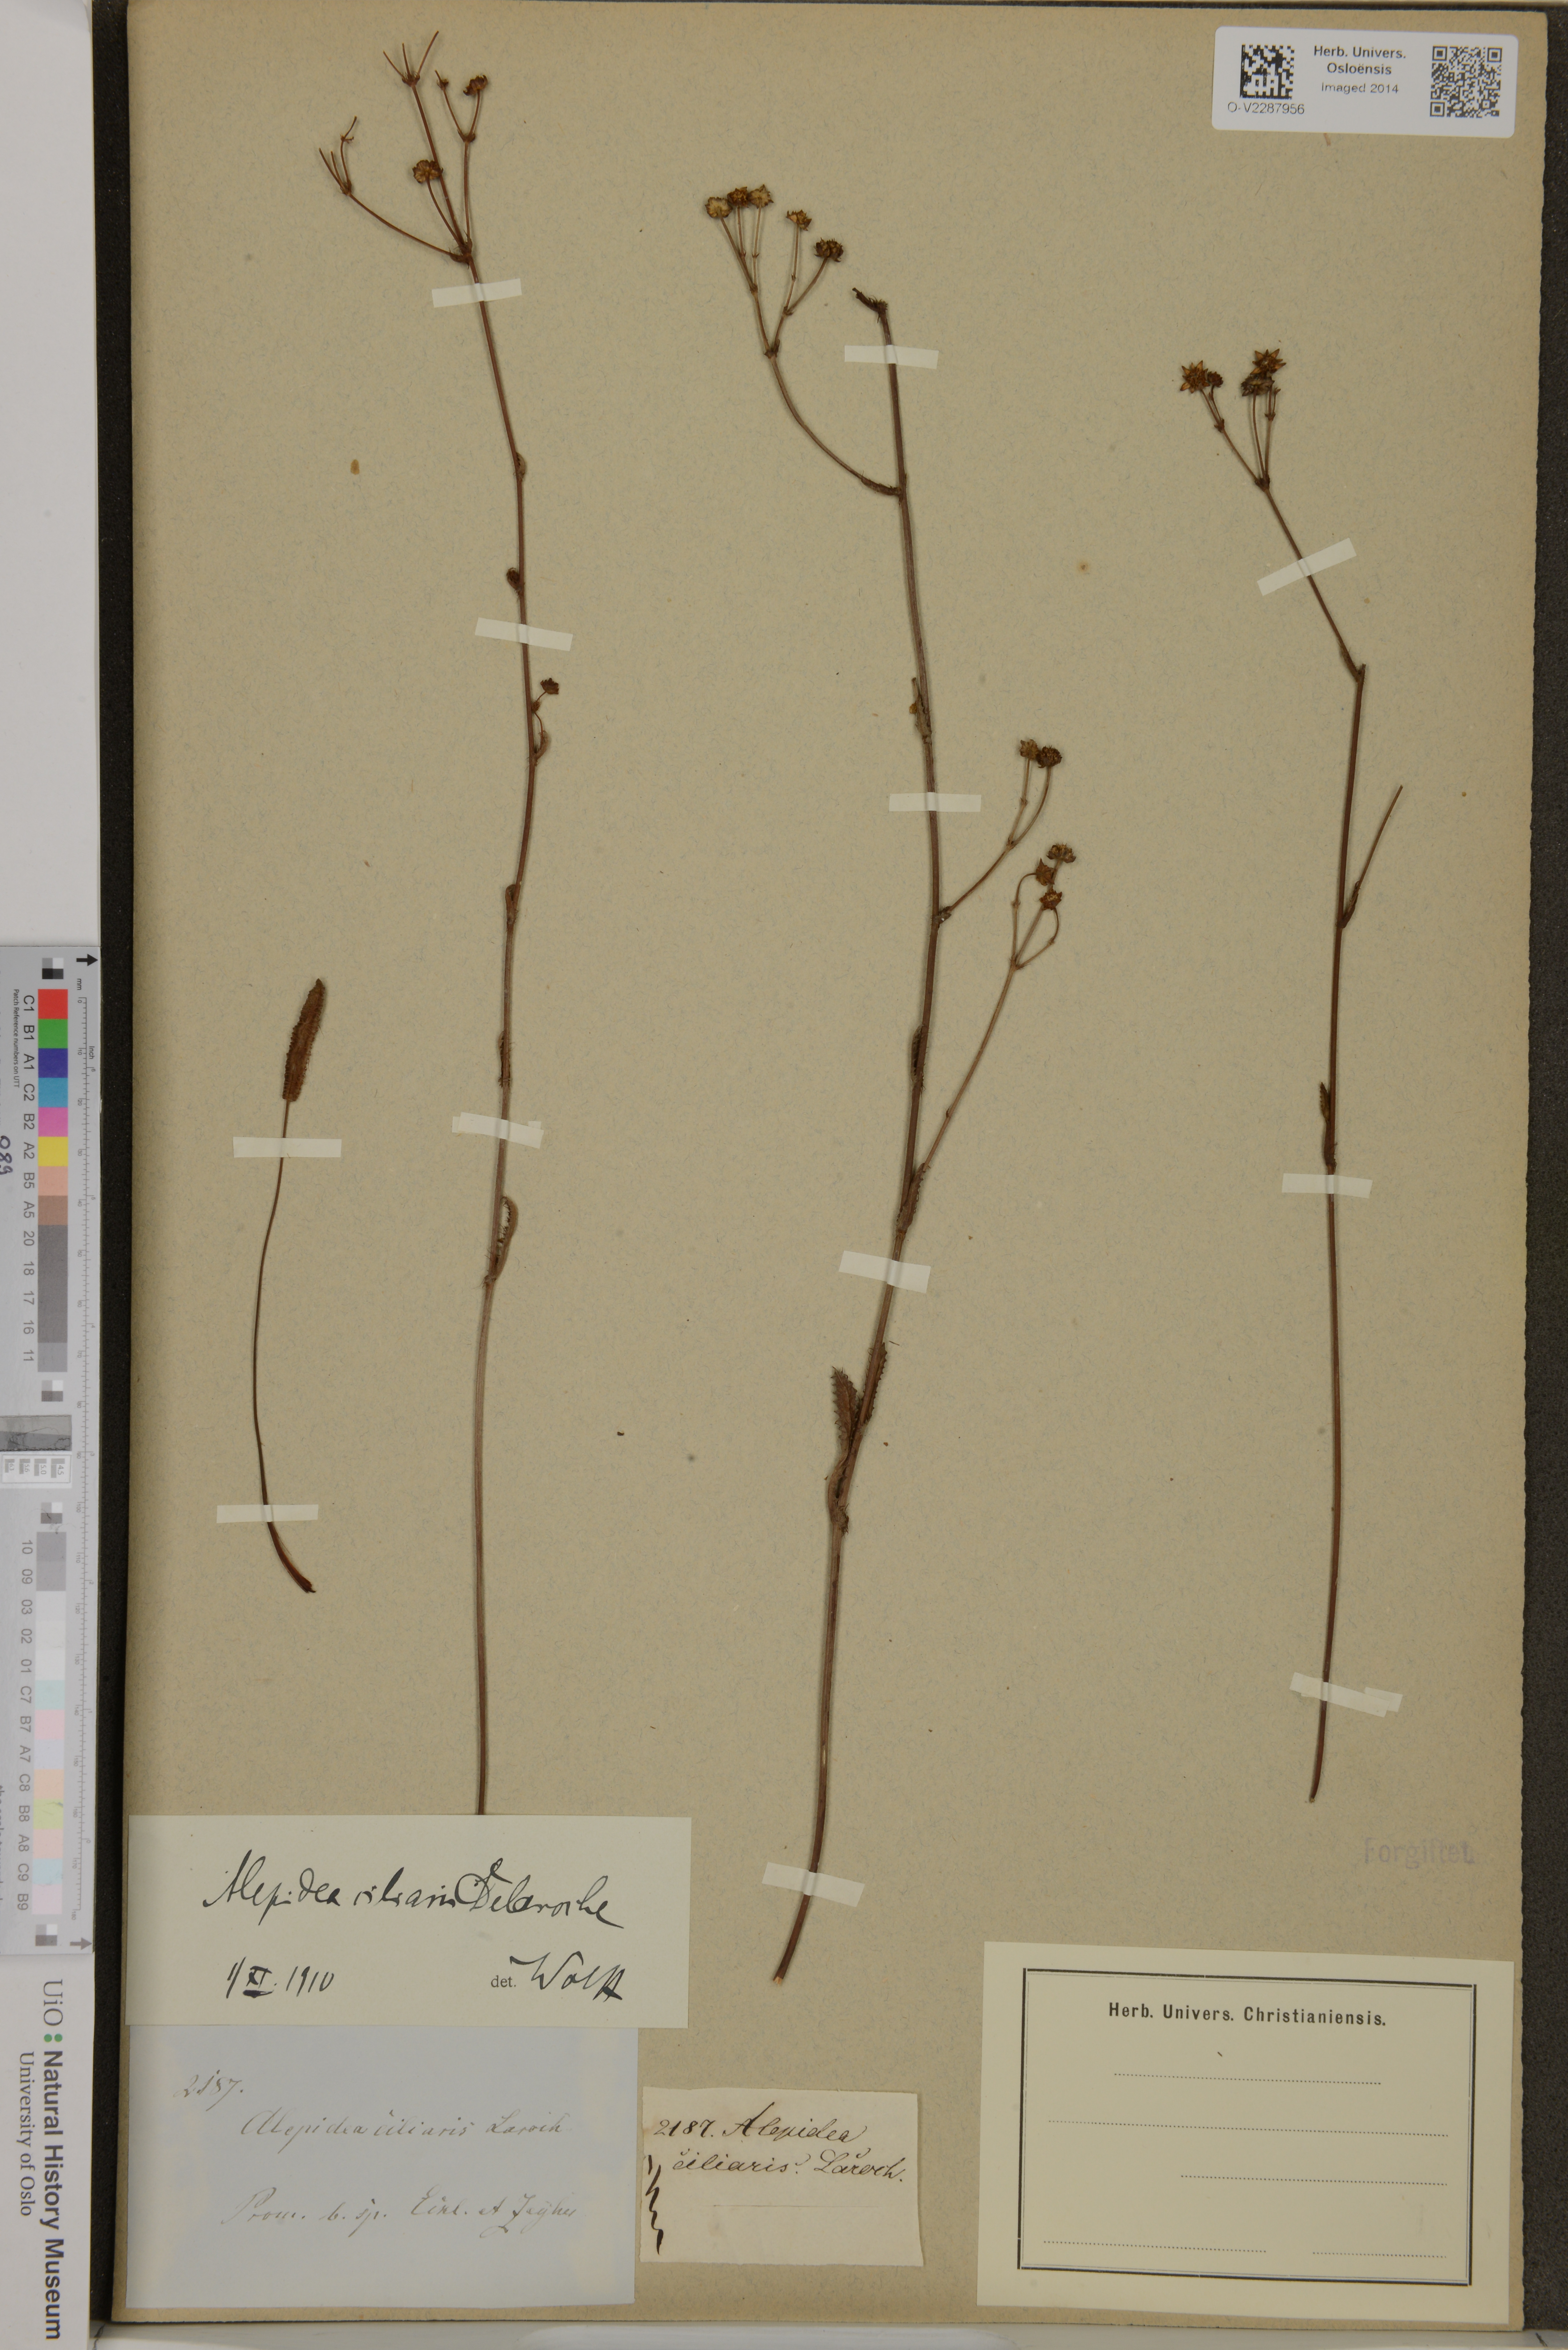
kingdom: Plantae
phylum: Tracheophyta
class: Magnoliopsida
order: Apiales
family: Apiaceae
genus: Alepidea
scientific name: Alepidea capensis
